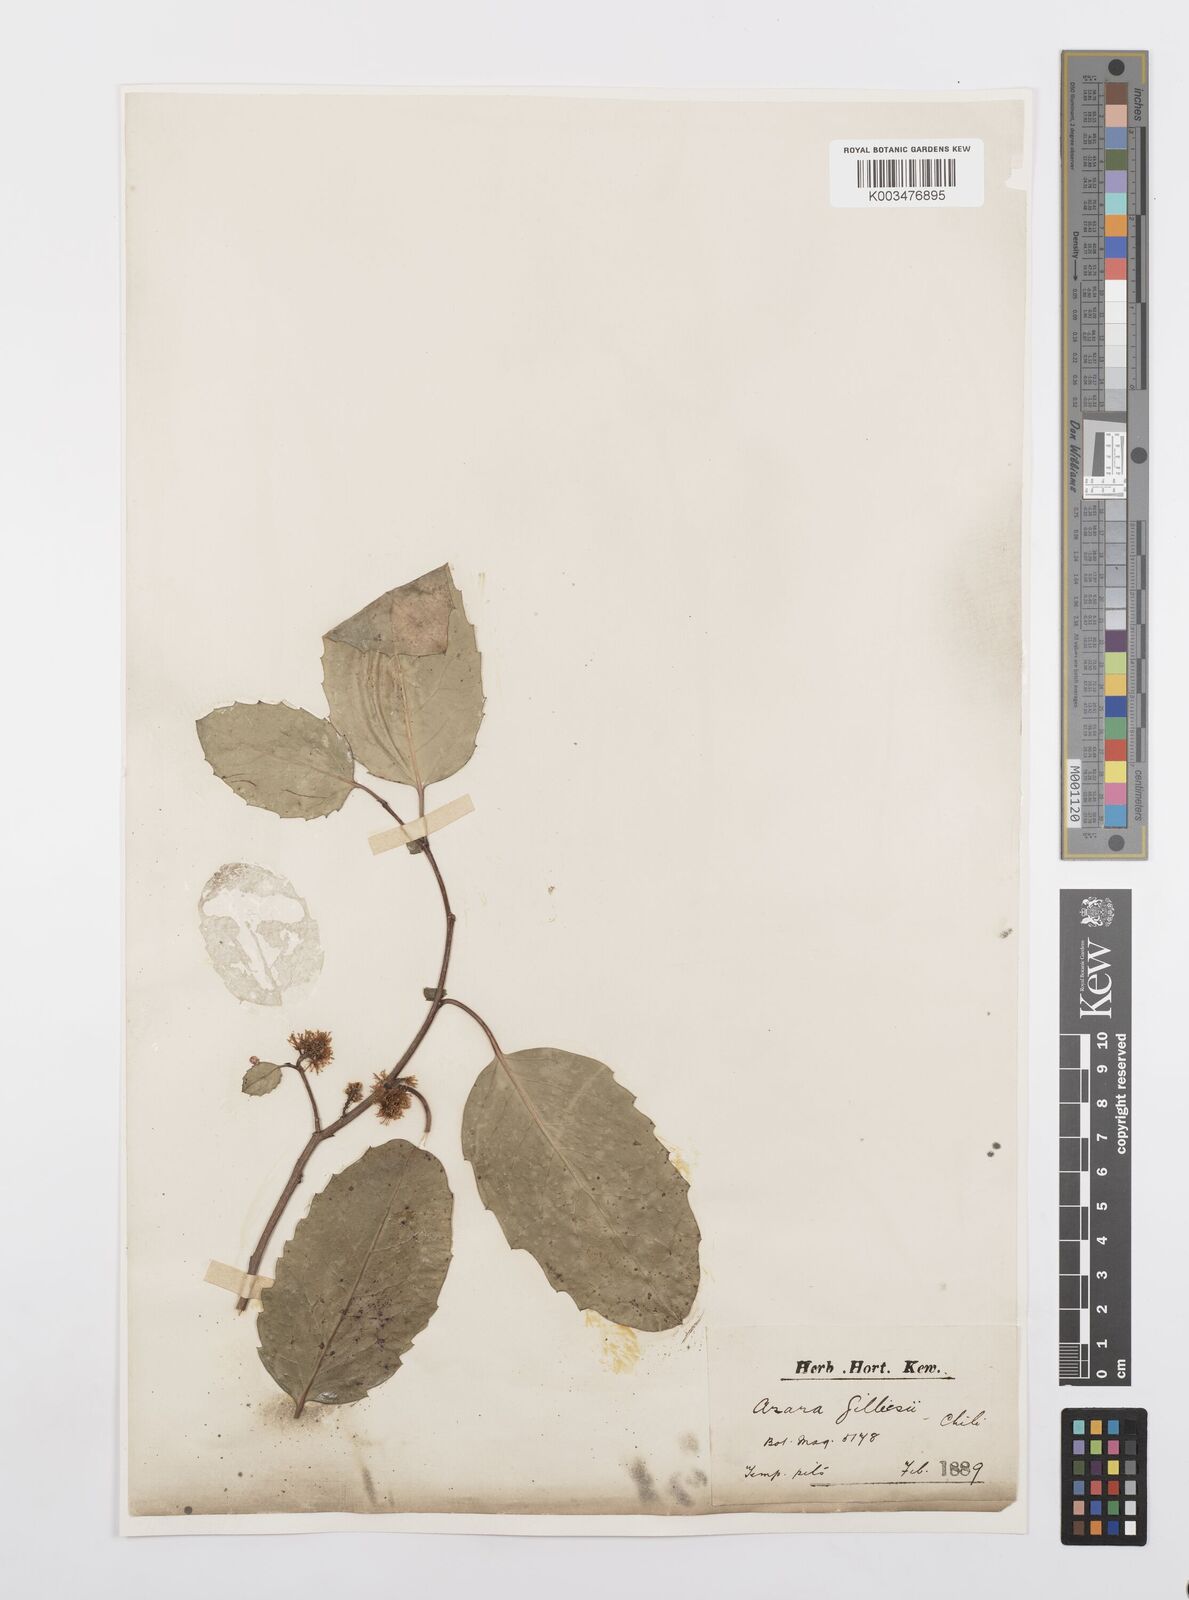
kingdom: Plantae
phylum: Tracheophyta
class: Magnoliopsida
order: Malpighiales
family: Salicaceae
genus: Azara
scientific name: Azara petiolaris
